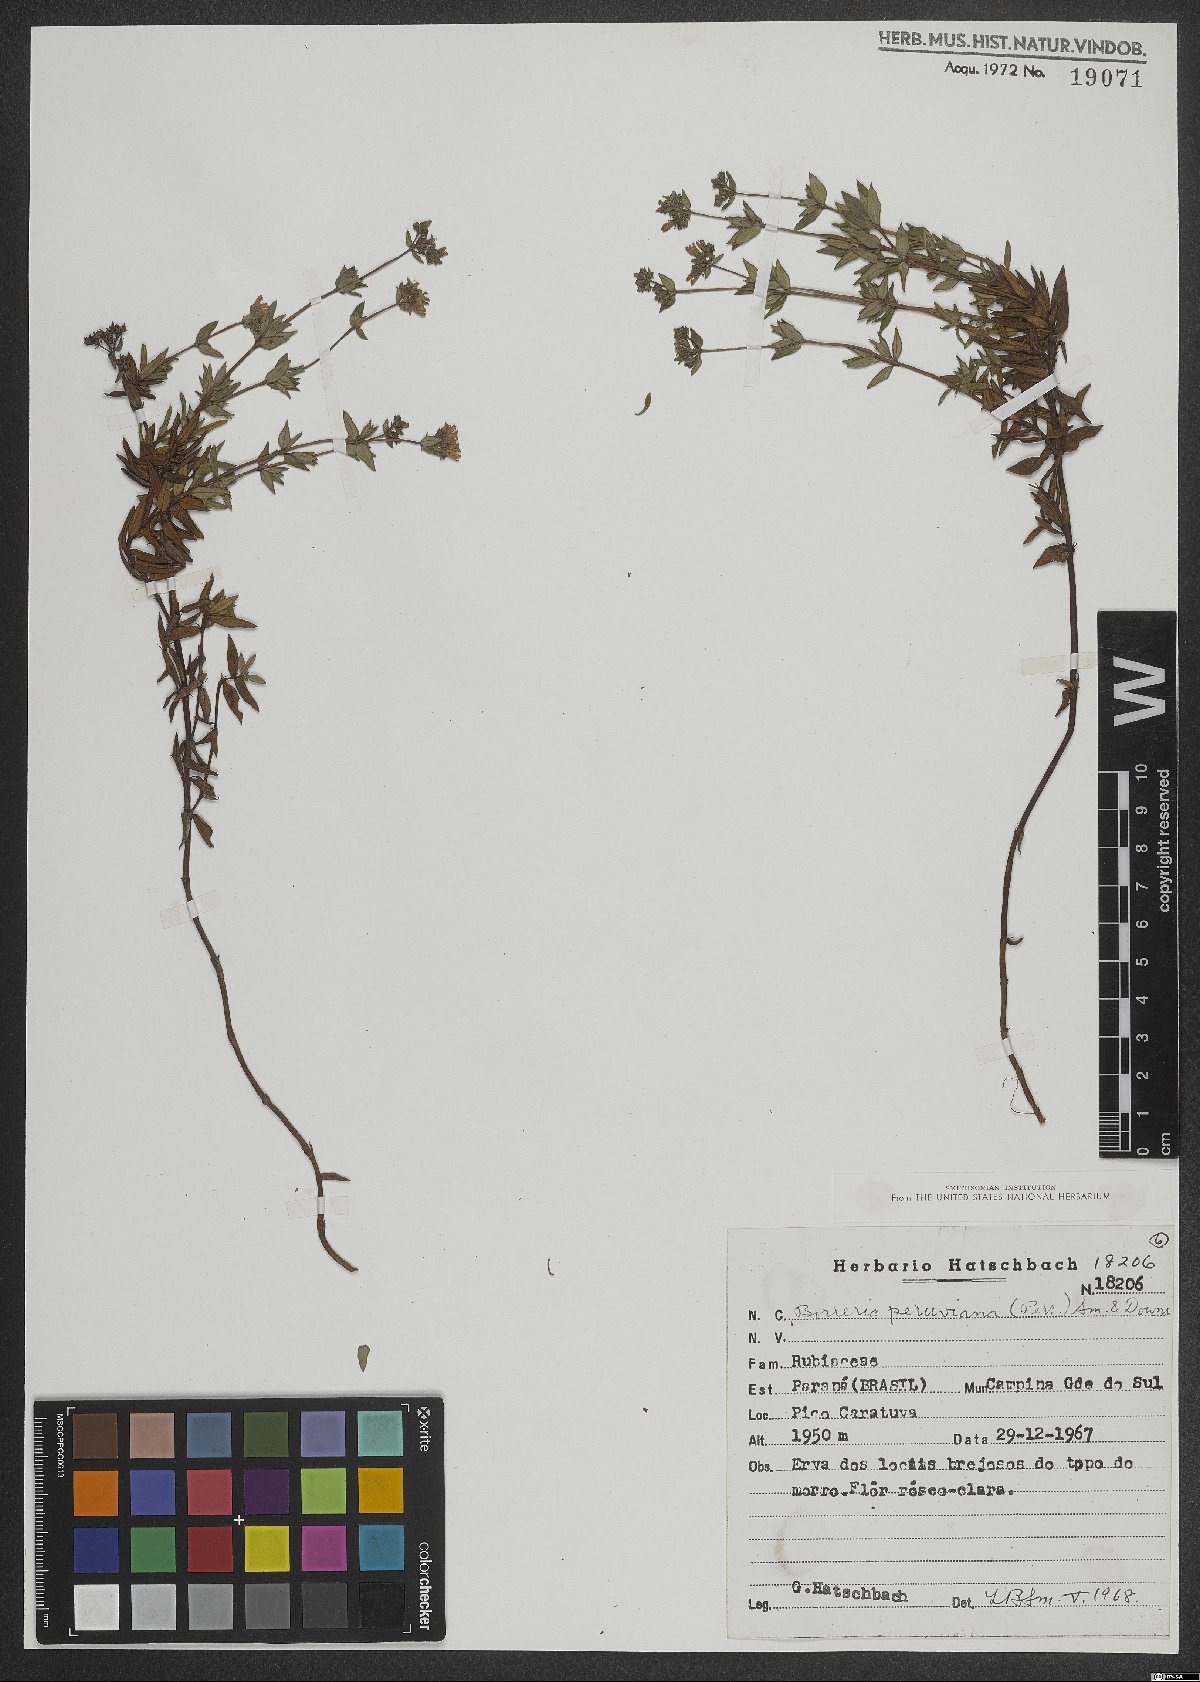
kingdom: Plantae
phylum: Tracheophyta
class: Magnoliopsida
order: Gentianales
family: Rubiaceae
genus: Galianthe
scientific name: Galianthe peruviana
